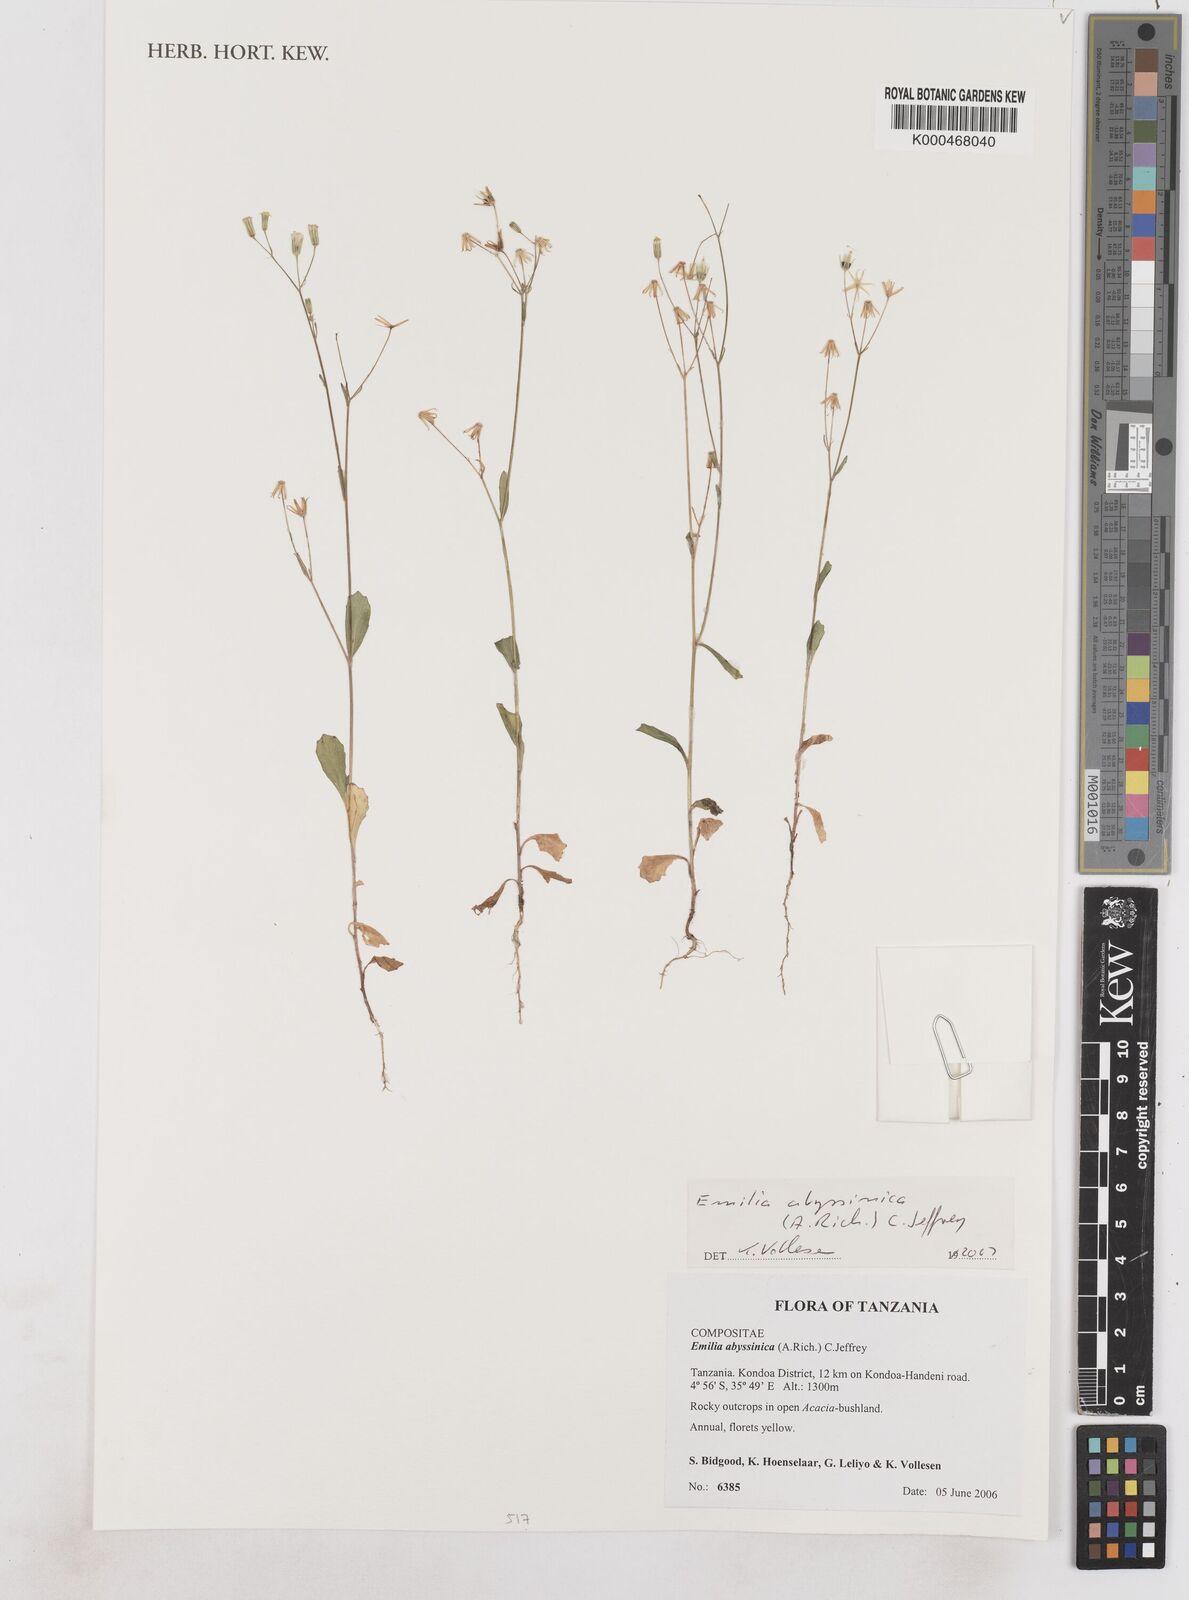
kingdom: Plantae
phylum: Tracheophyta
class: Magnoliopsida
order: Asterales
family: Asteraceae
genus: Emilia
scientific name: Emilia abyssinica
